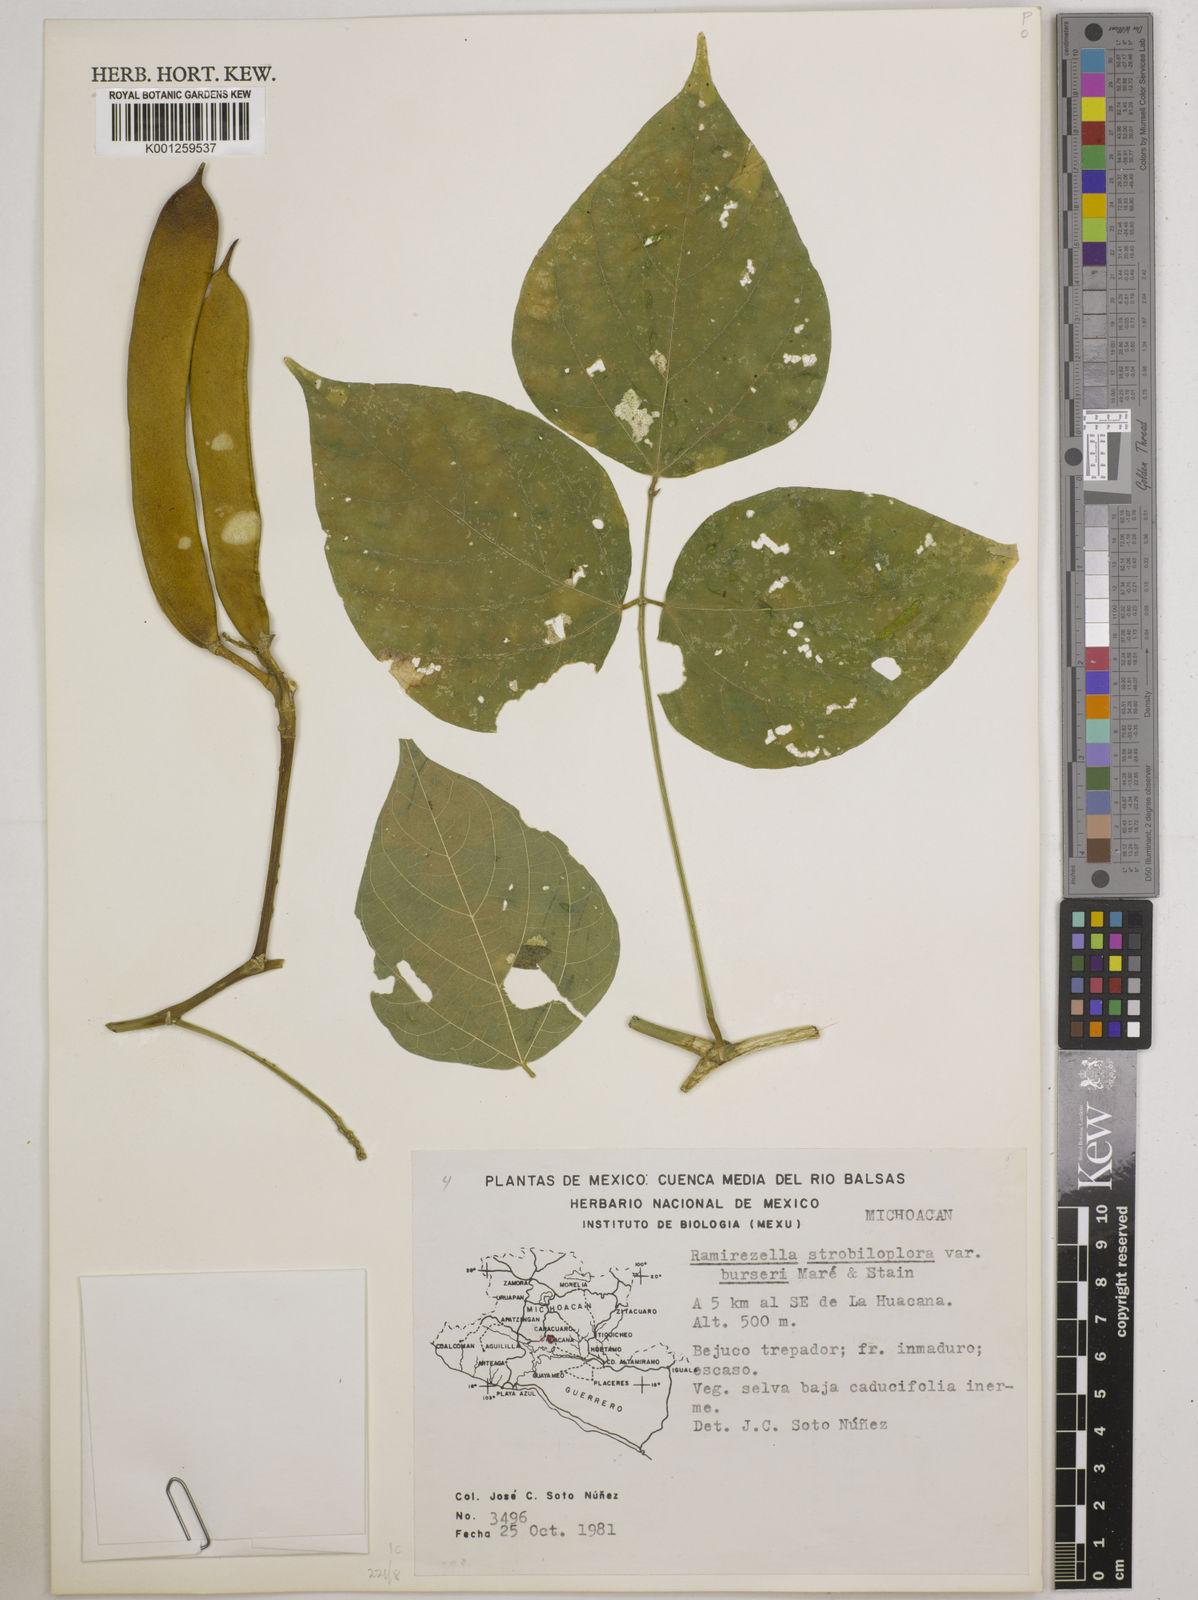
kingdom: Plantae
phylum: Tracheophyta
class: Magnoliopsida
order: Fabales
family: Fabaceae
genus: Ramirezella
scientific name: Ramirezella strobilophora
